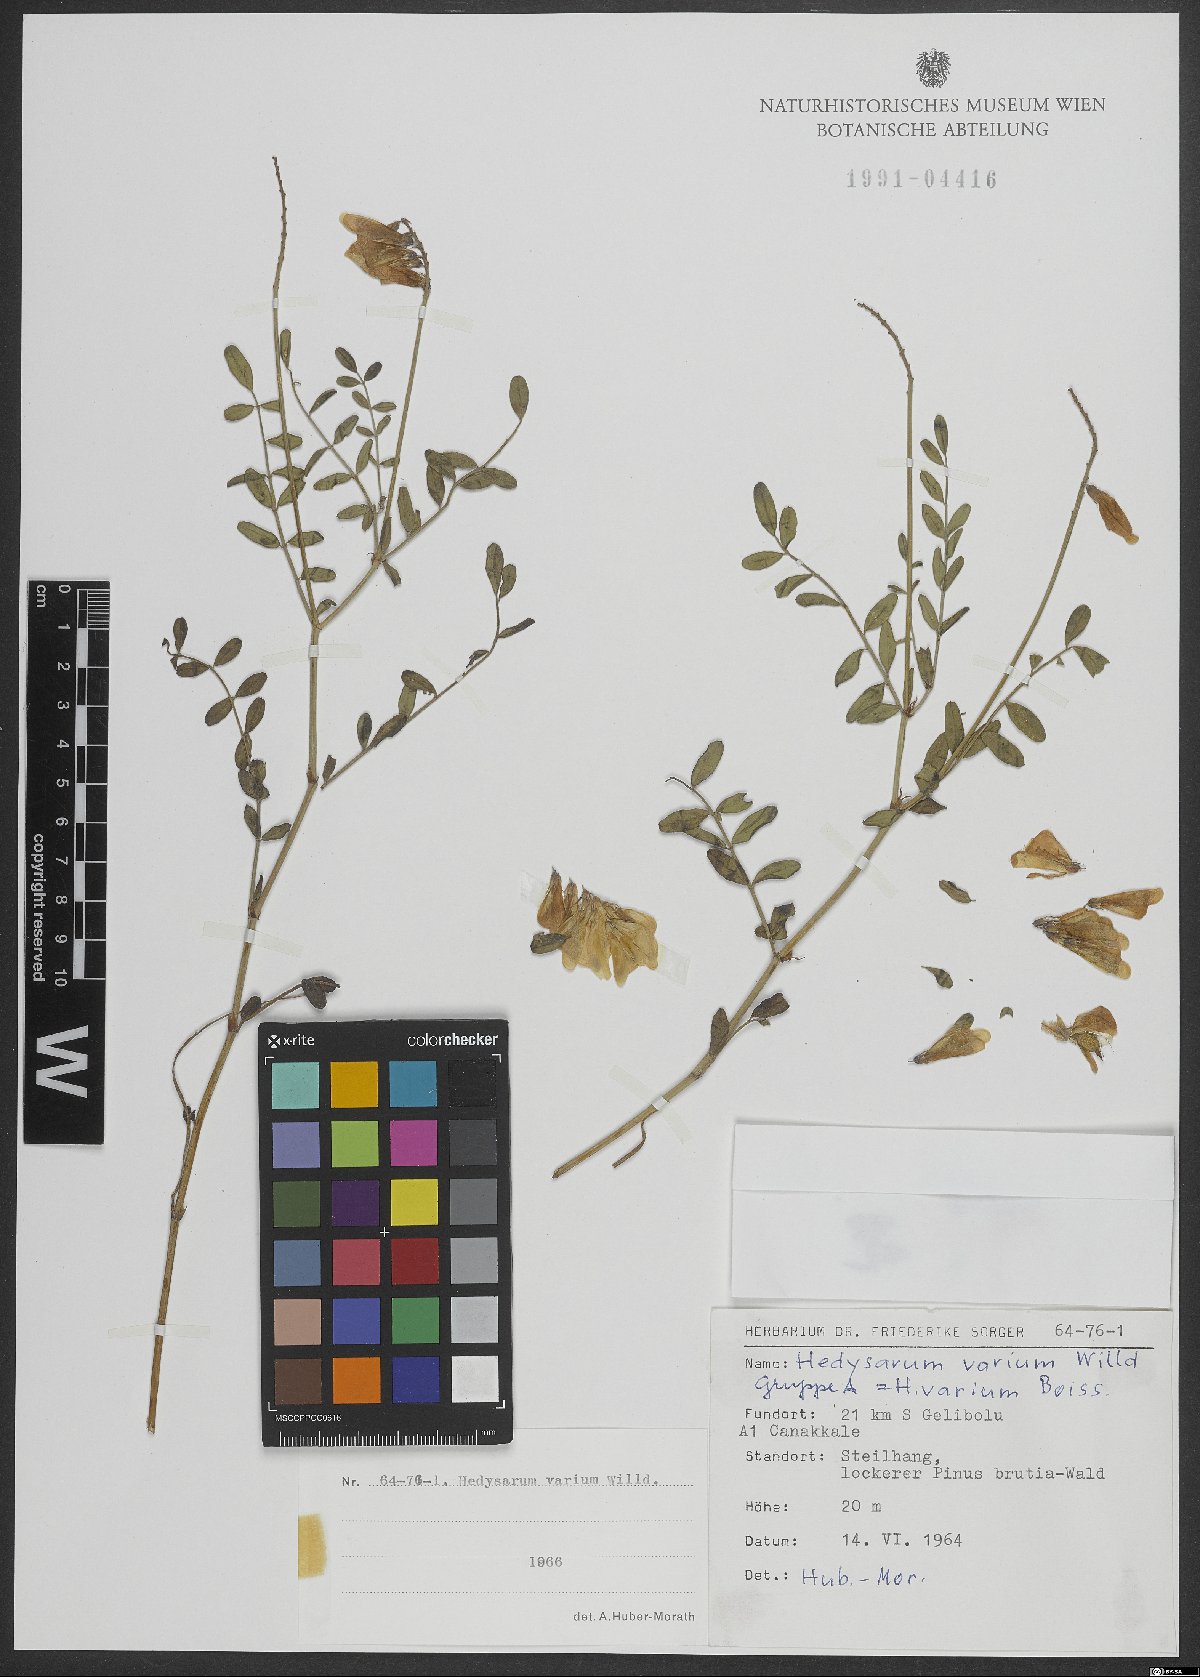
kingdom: Plantae
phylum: Tracheophyta
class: Magnoliopsida
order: Fabales
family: Fabaceae
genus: Hedysarum
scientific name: Hedysarum varium
